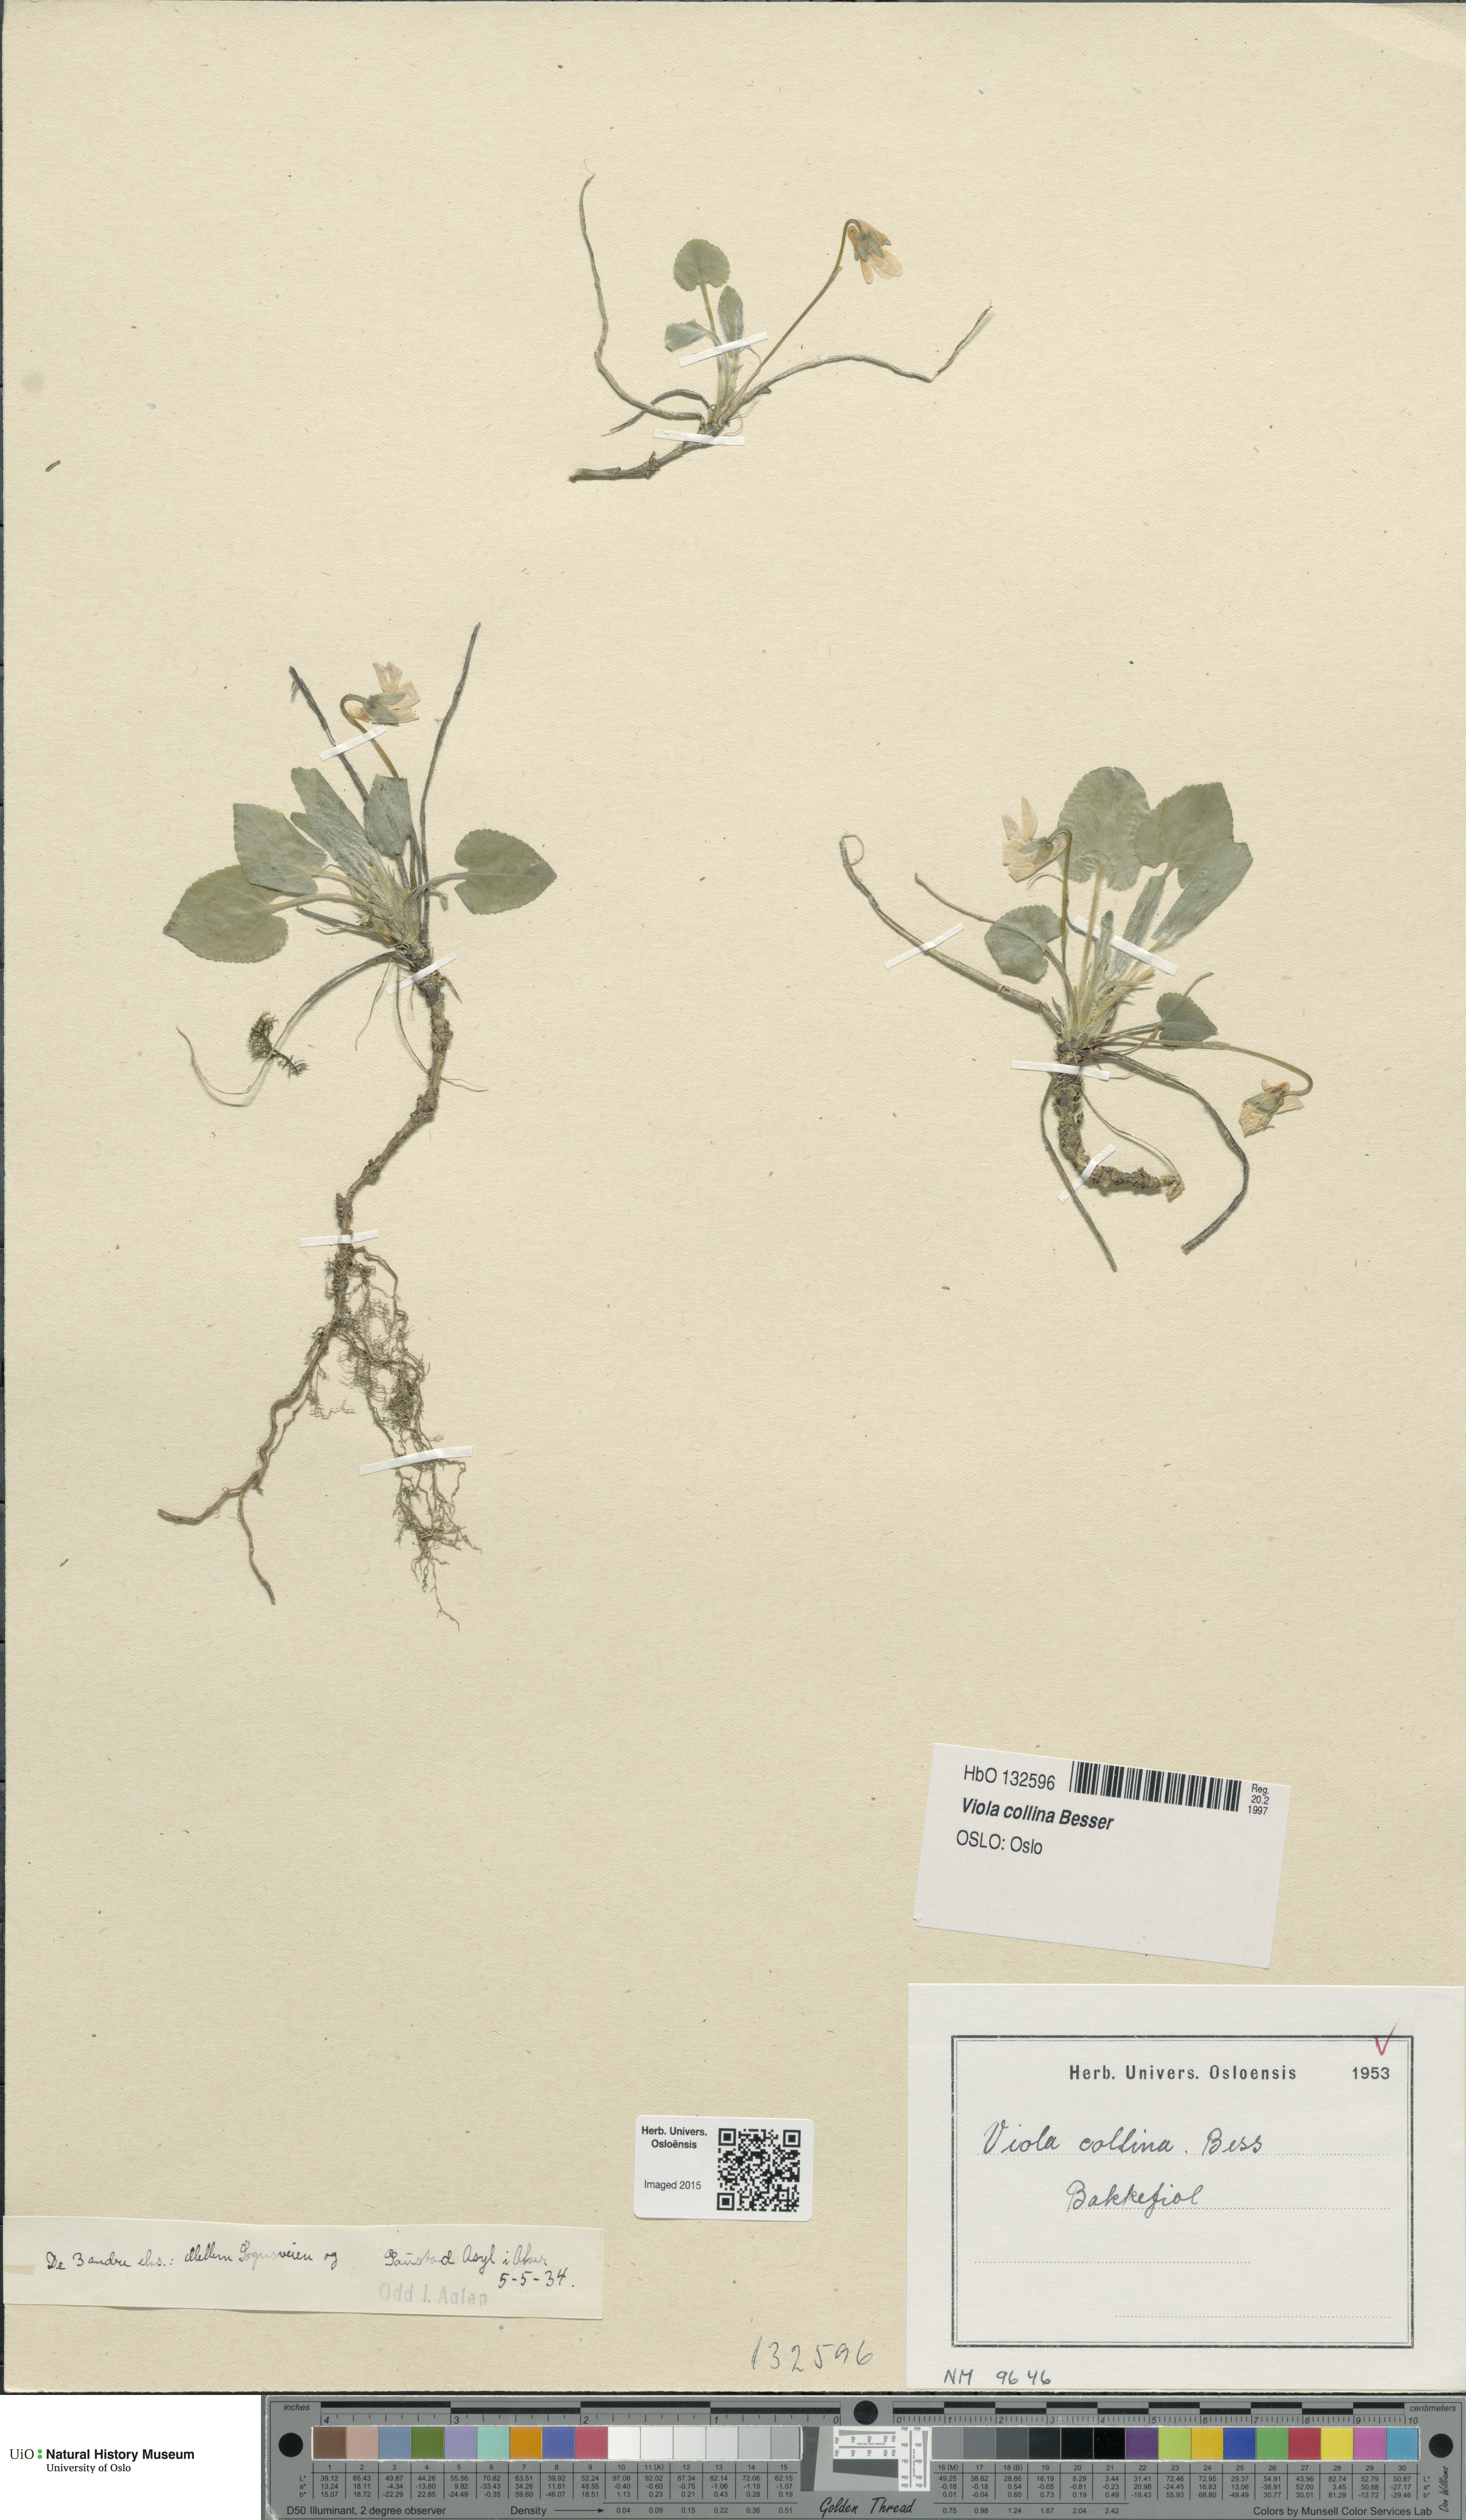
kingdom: Plantae
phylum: Tracheophyta
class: Magnoliopsida
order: Malpighiales
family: Violaceae
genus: Viola
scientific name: Viola collina
